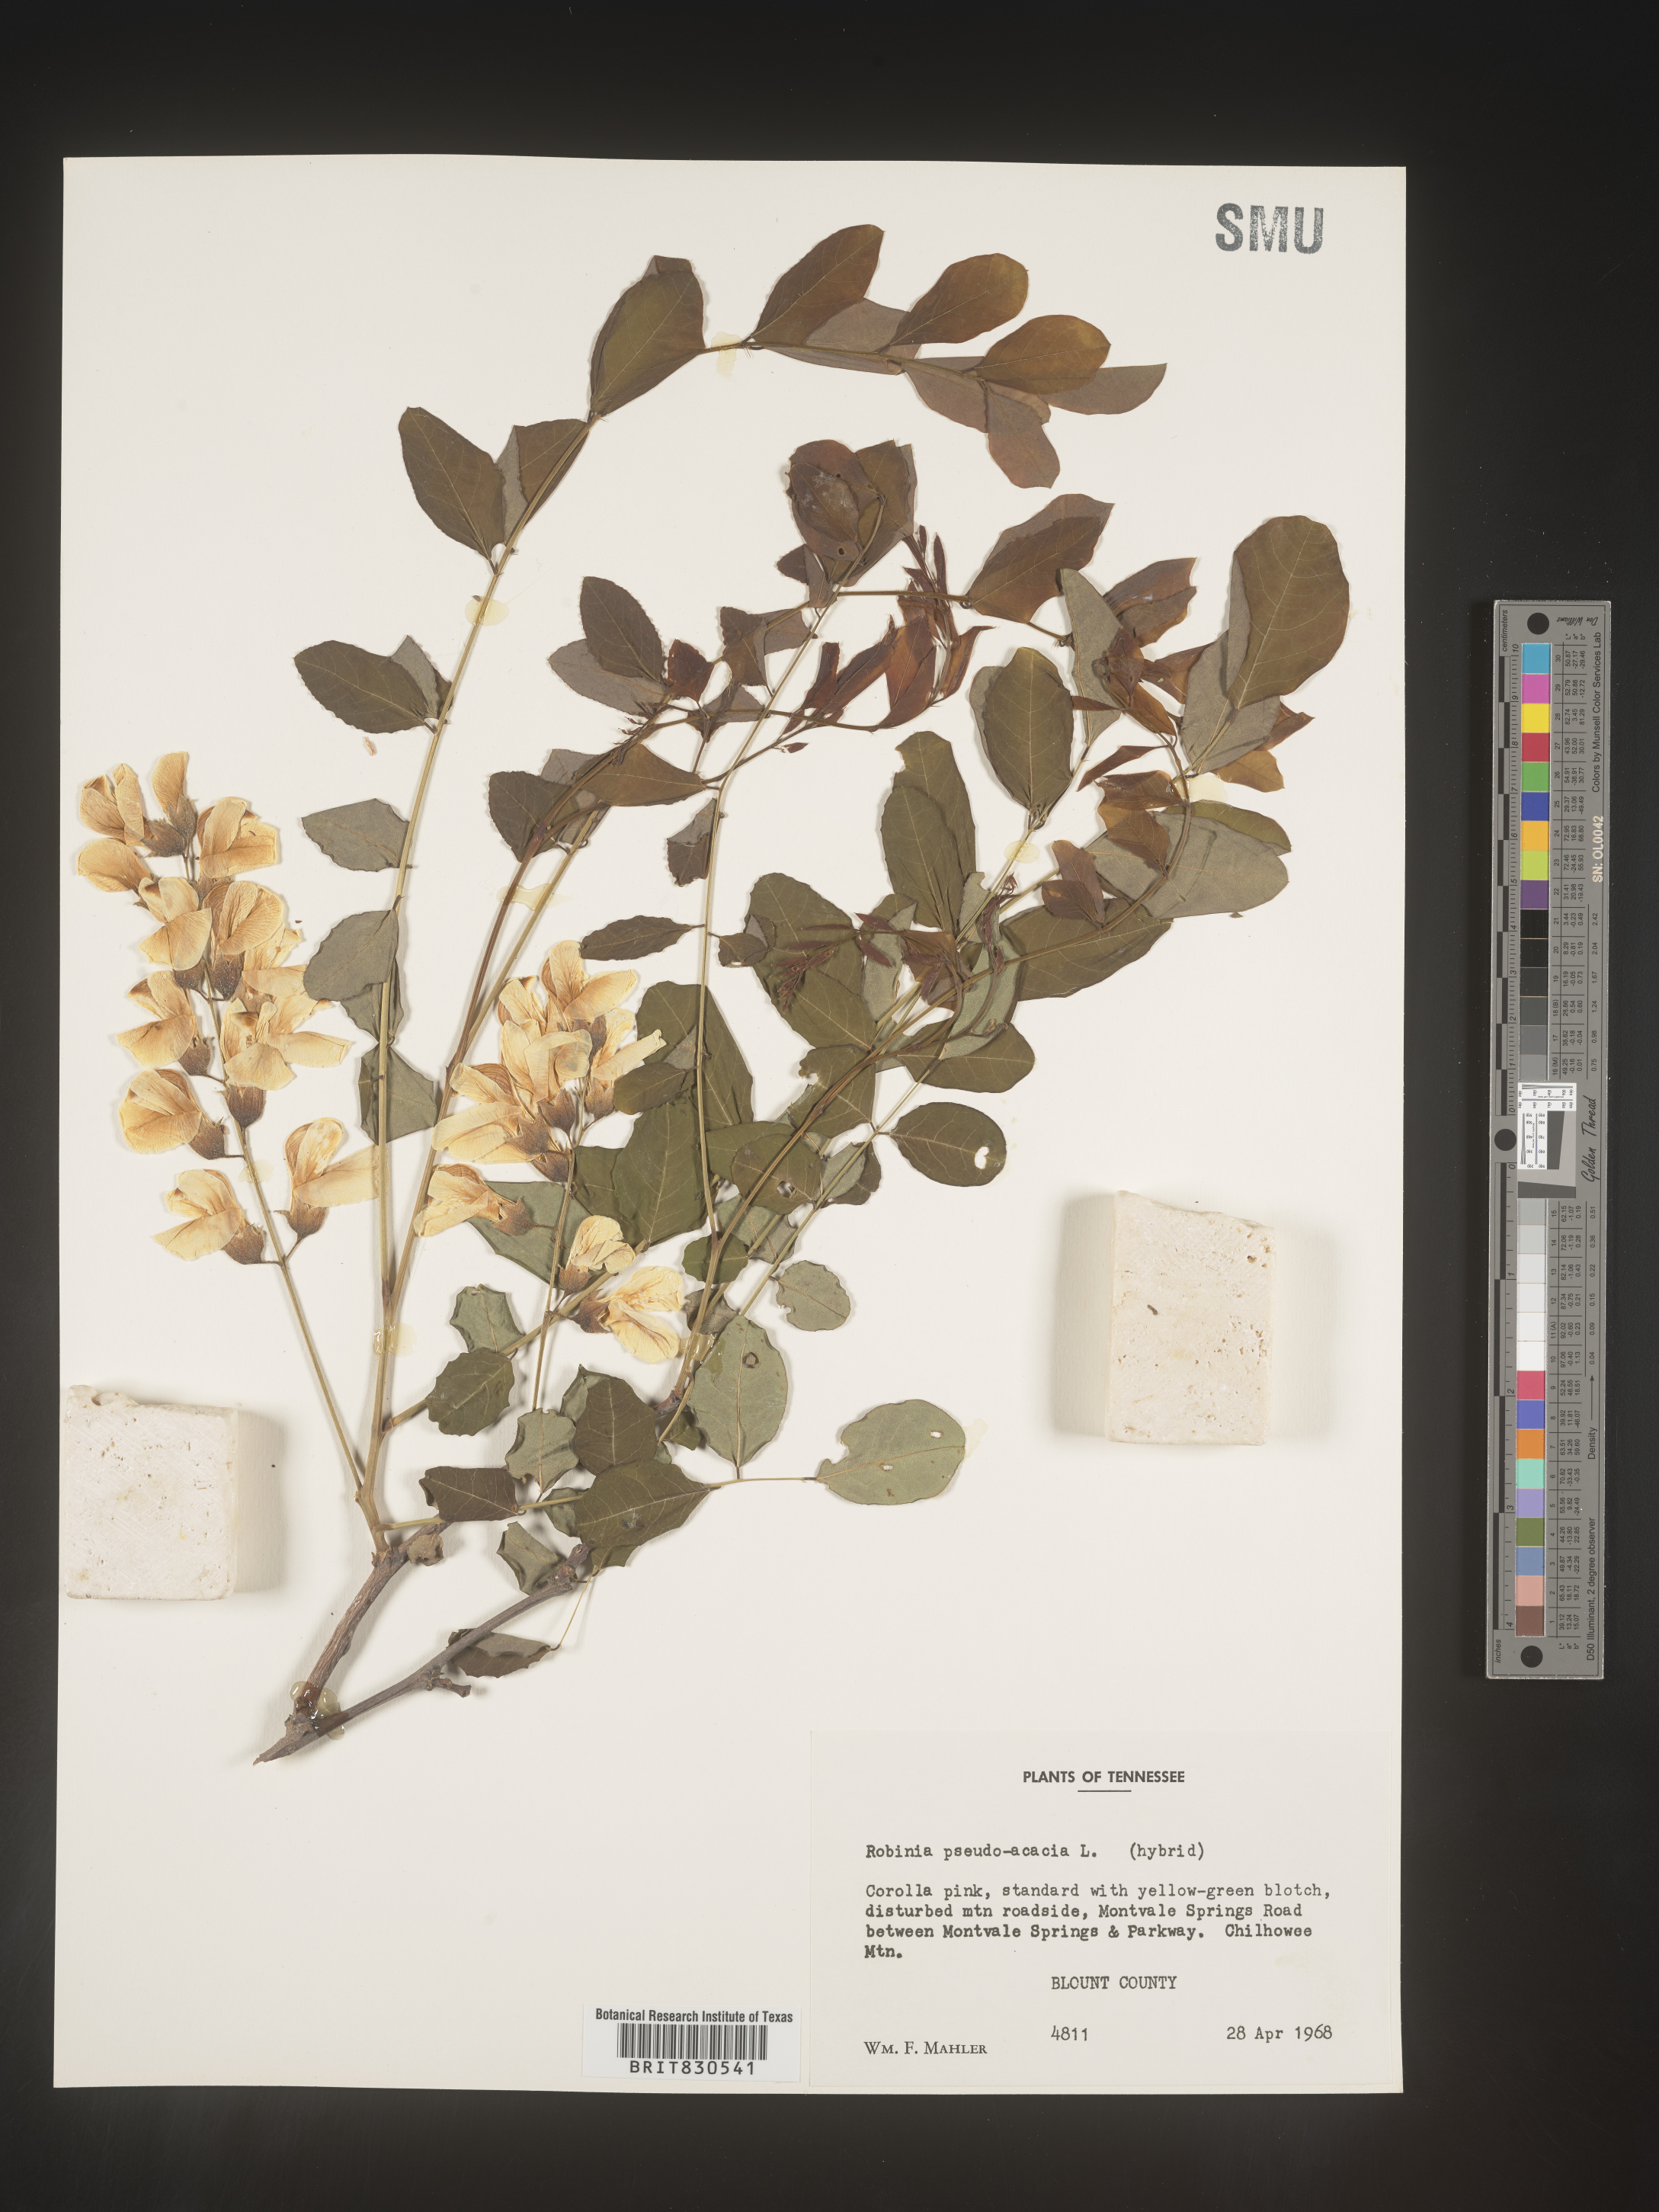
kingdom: Plantae
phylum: Tracheophyta
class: Magnoliopsida
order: Fabales
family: Fabaceae
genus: Robinia
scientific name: Robinia pseudoacacia
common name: Black locust
